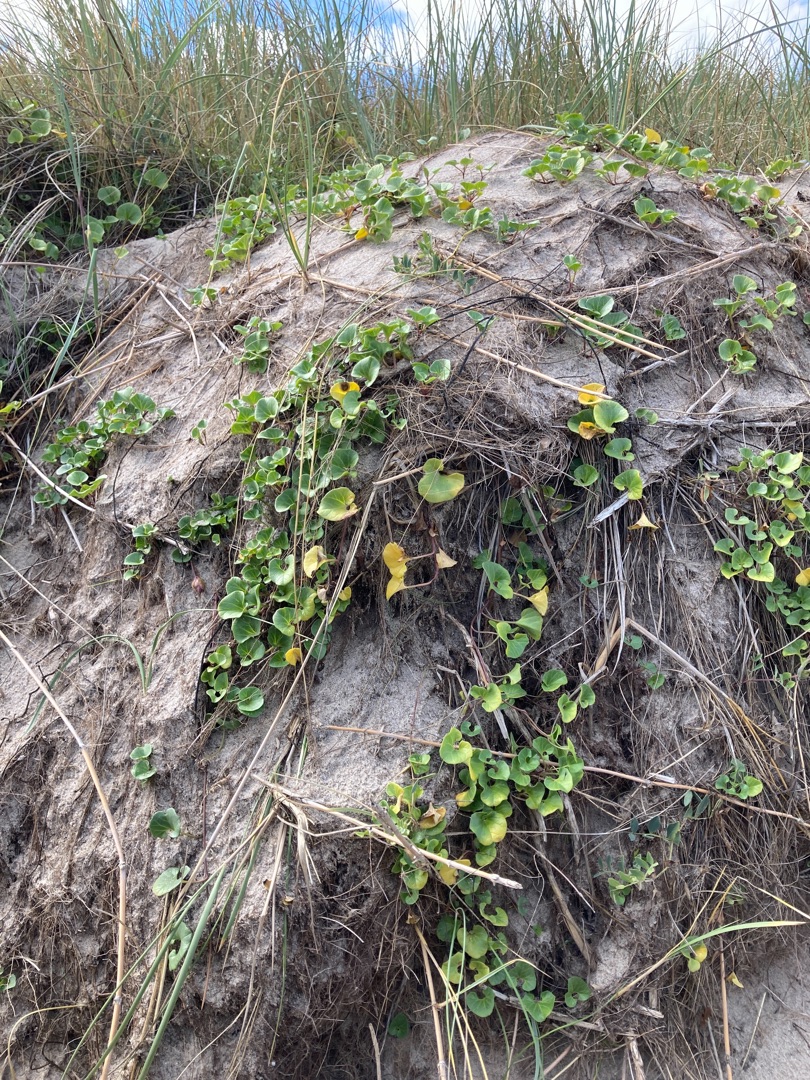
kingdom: Plantae
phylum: Tracheophyta
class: Magnoliopsida
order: Solanales
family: Convolvulaceae
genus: Calystegia
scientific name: Calystegia soldanella
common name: Strand-snerle
